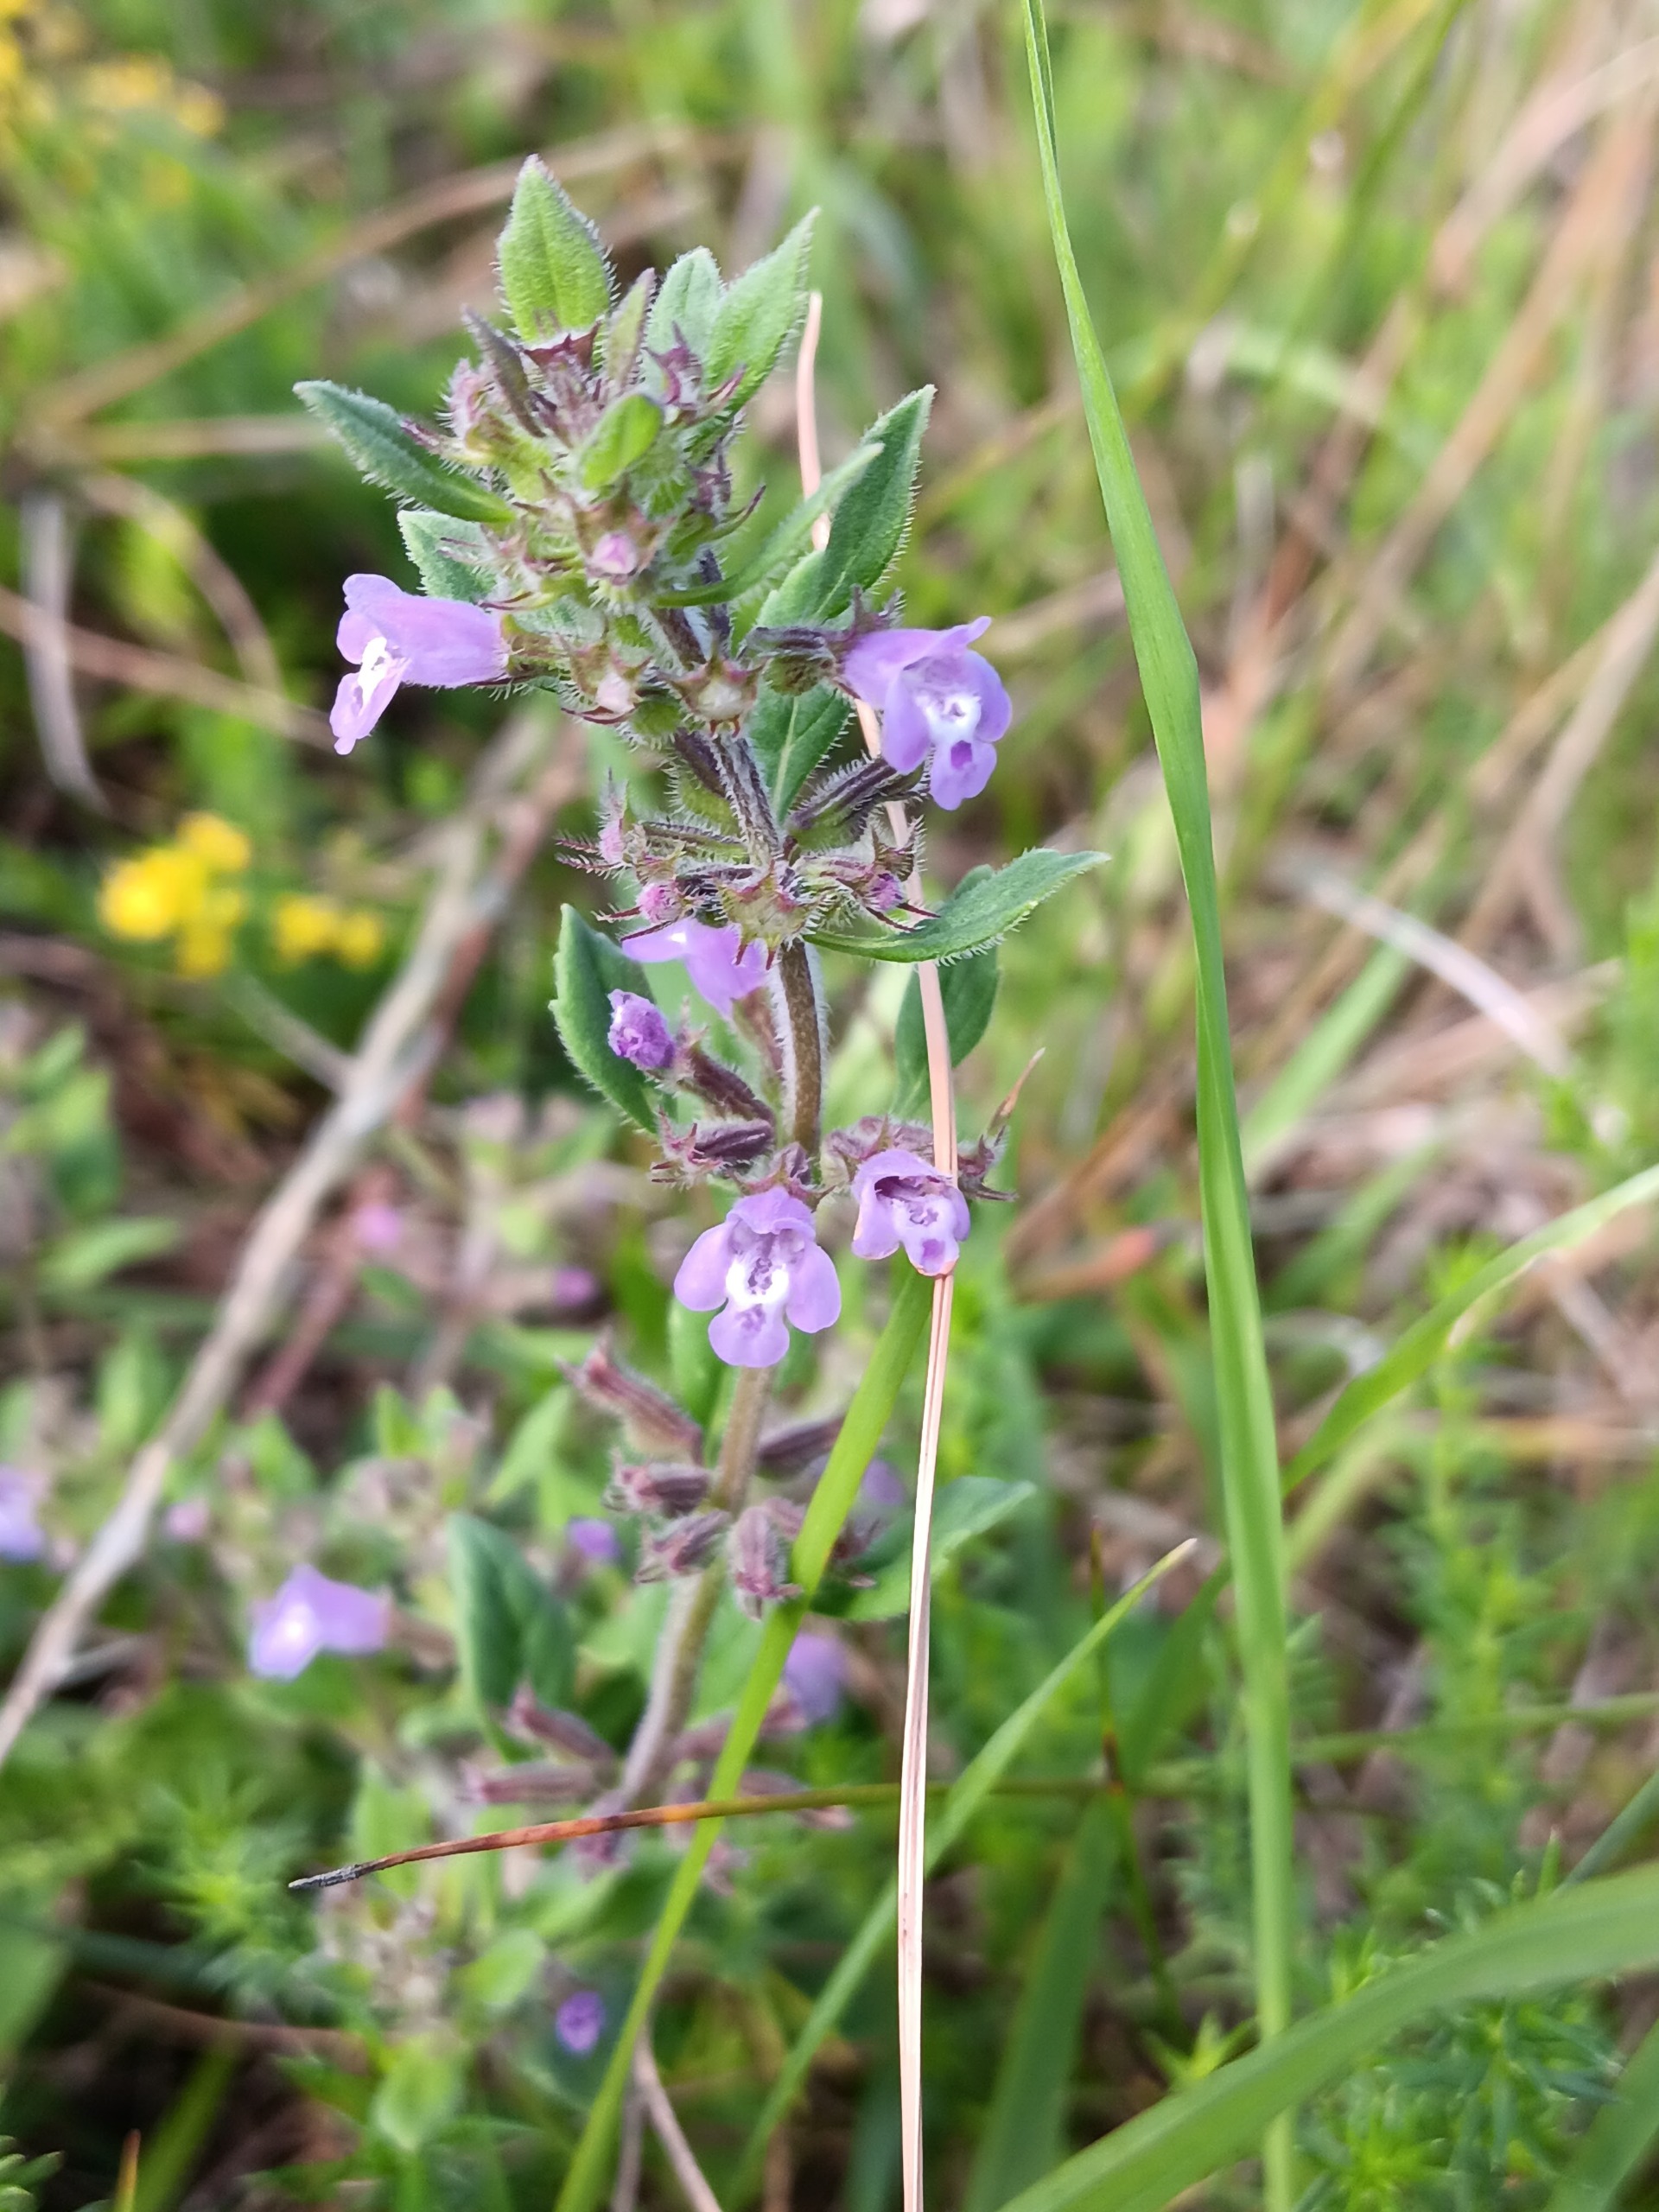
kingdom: Plantae
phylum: Tracheophyta
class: Magnoliopsida
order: Lamiales
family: Lamiaceae
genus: Clinopodium
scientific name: Clinopodium acinos
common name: Voldtimian
